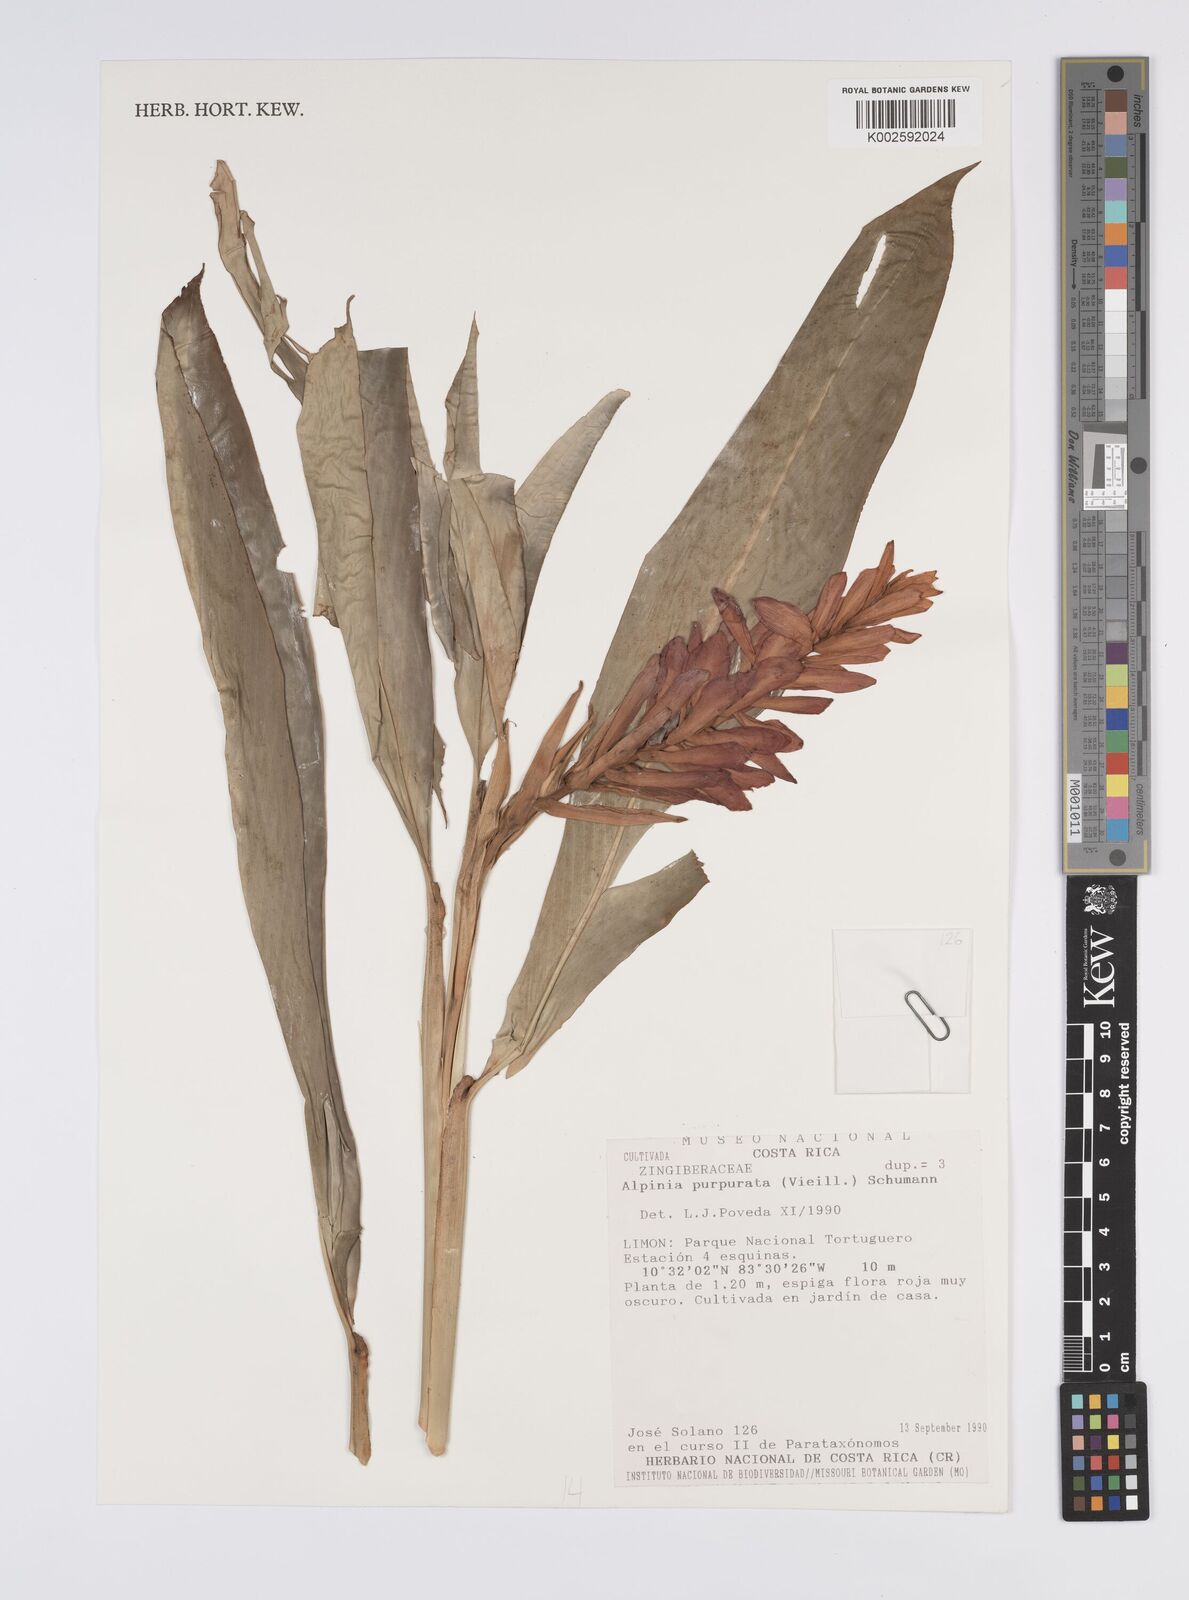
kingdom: Plantae
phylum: Tracheophyta
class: Liliopsida
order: Zingiberales
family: Zingiberaceae
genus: Alpinia
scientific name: Alpinia purpurata
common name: Red ginger
